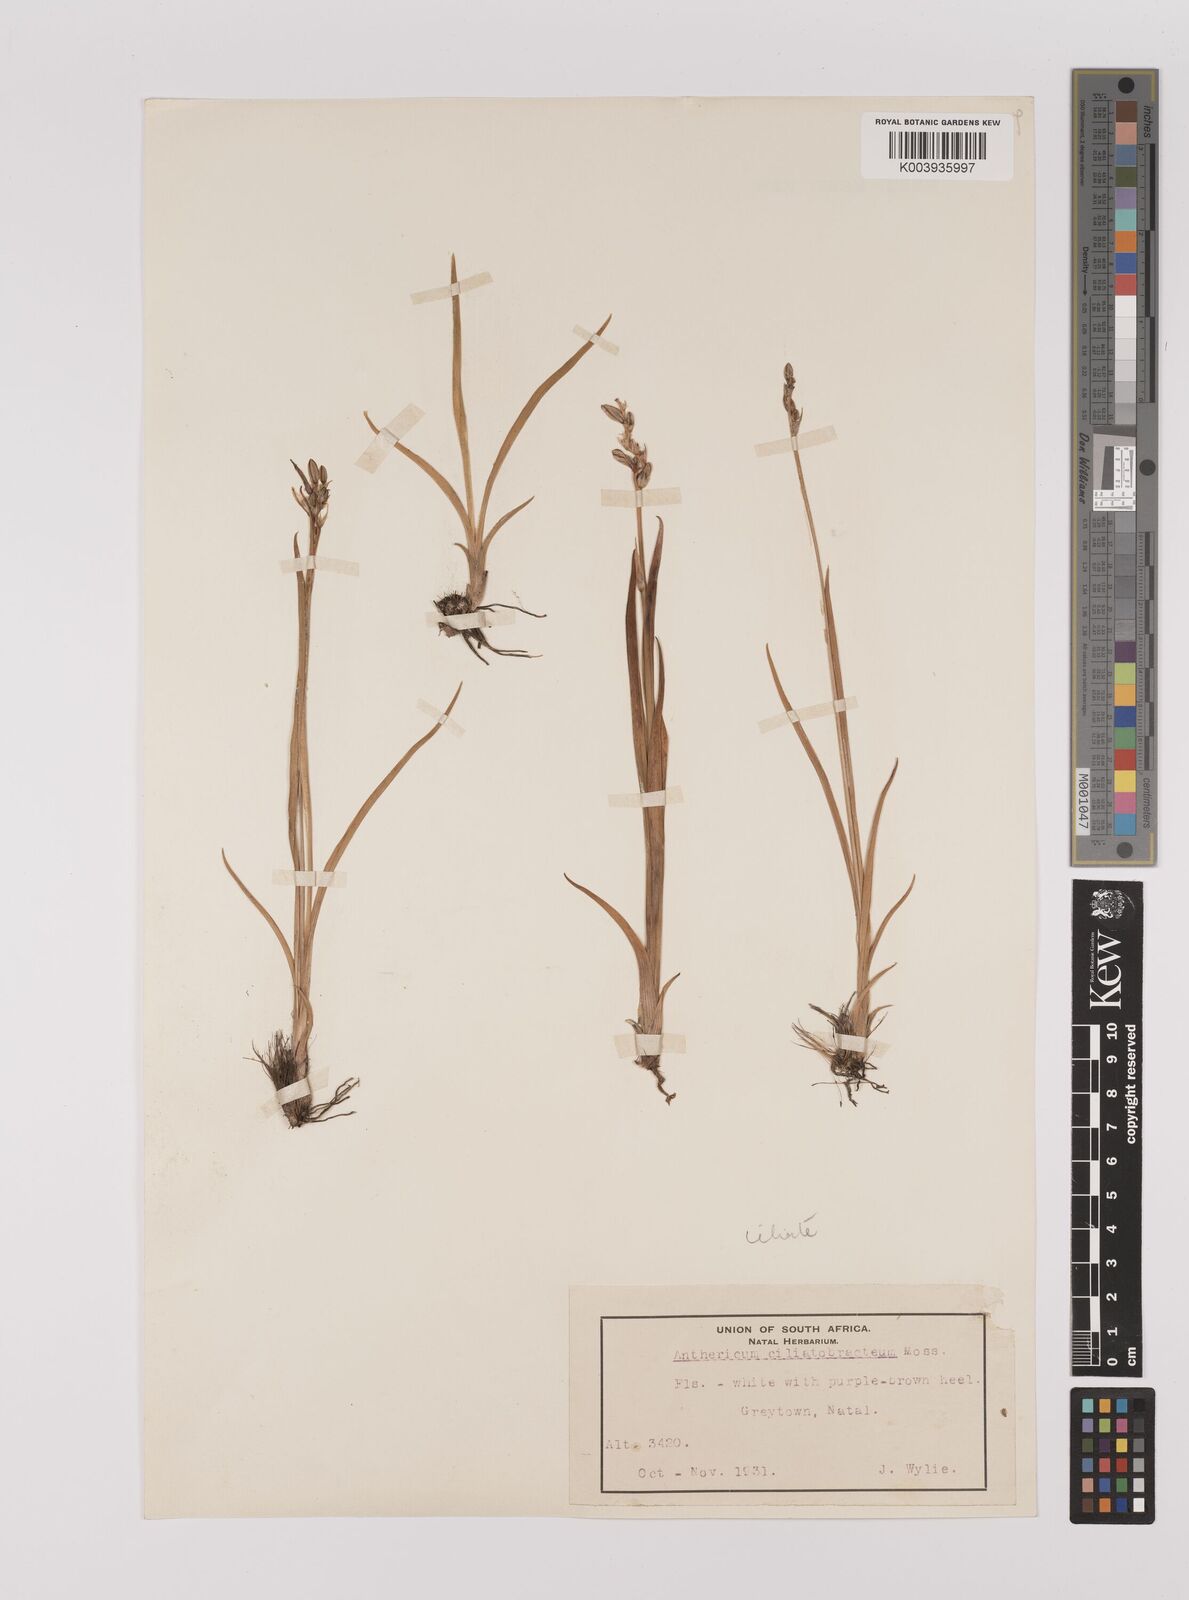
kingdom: Plantae
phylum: Tracheophyta
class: Liliopsida
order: Asparagales
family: Asparagaceae
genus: Chlorophytum
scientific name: Chlorophytum cooperi
